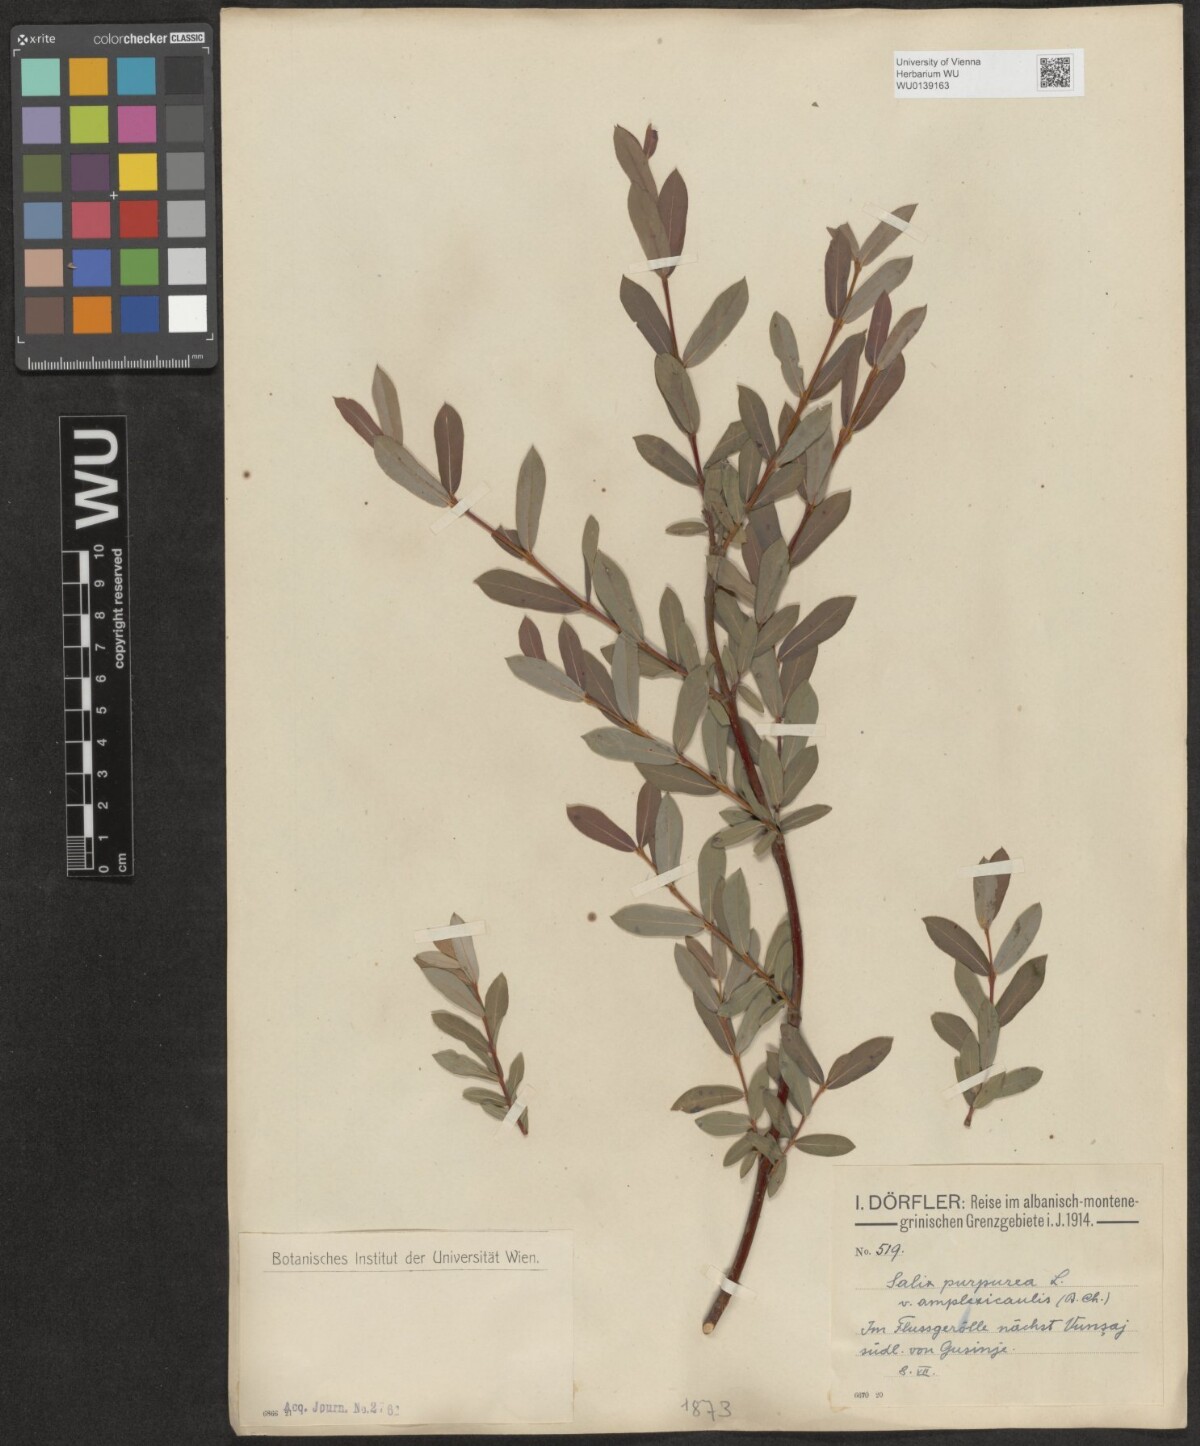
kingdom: Plantae
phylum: Tracheophyta
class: Magnoliopsida
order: Malpighiales
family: Salicaceae
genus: Salix
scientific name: Salix purpurea
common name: Purple willow
